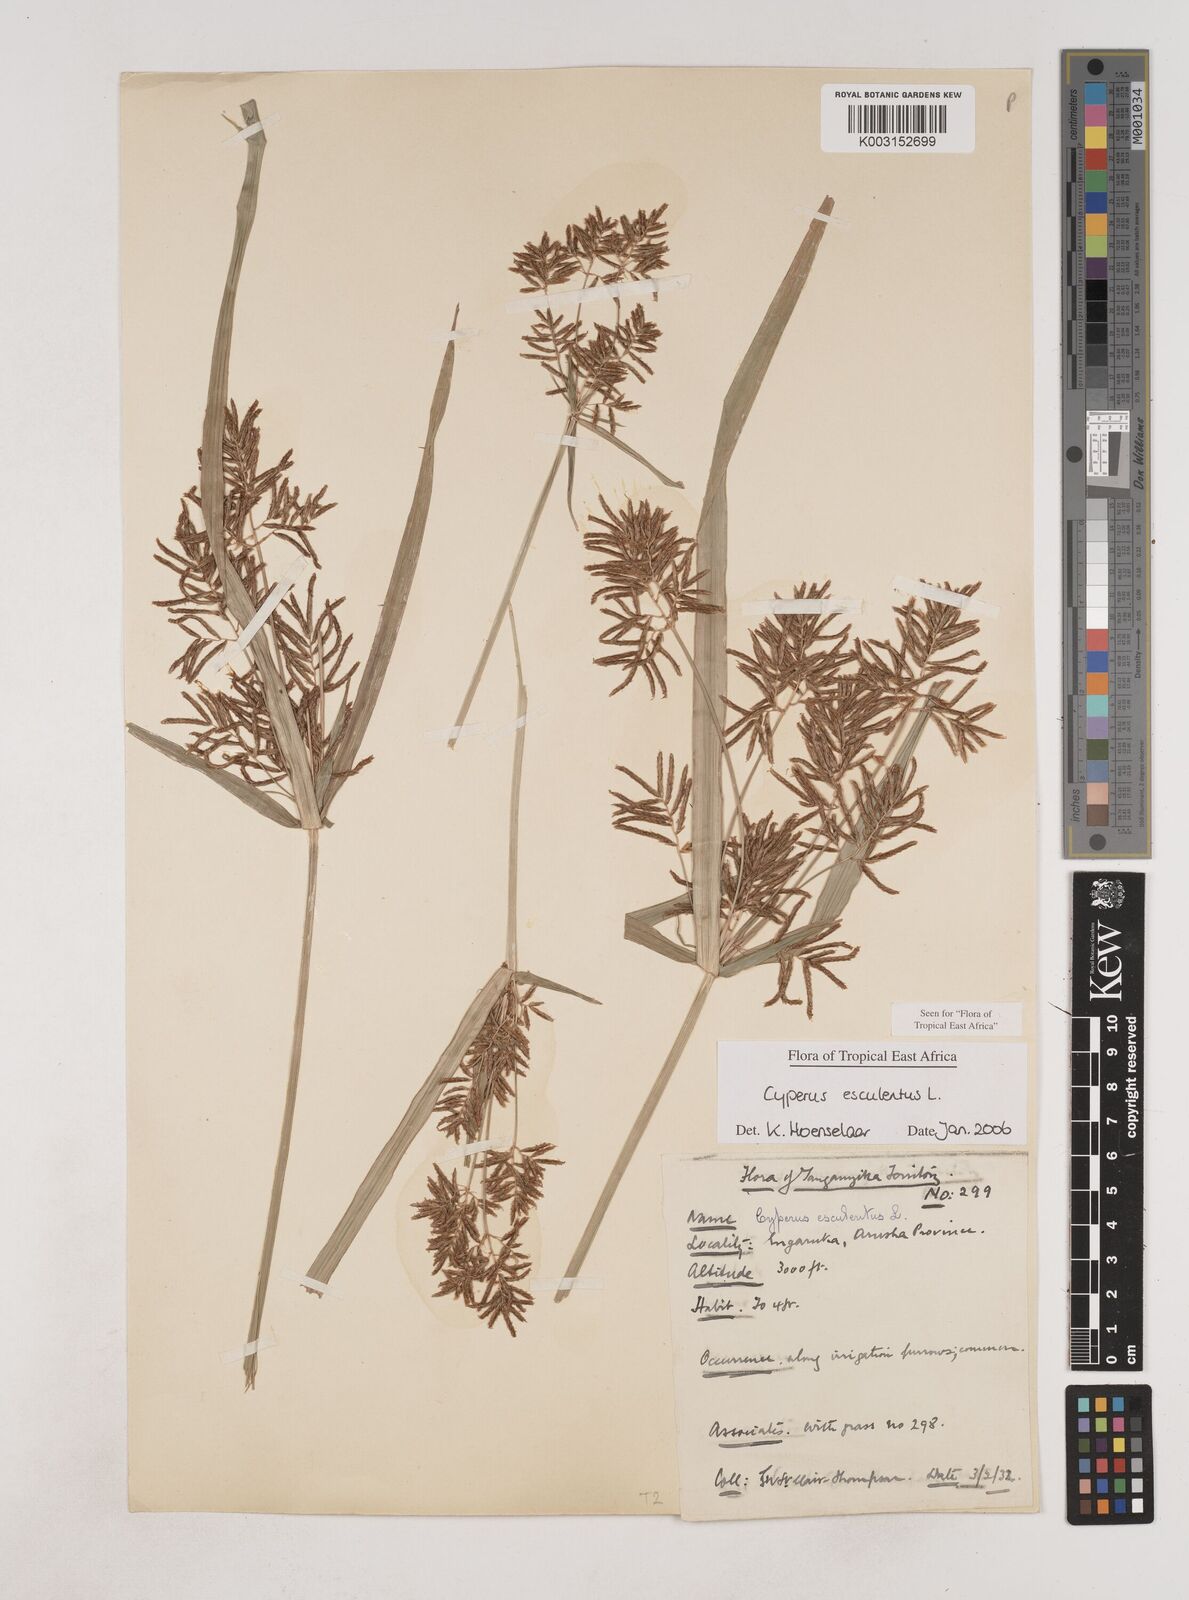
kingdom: Plantae
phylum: Tracheophyta
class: Liliopsida
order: Poales
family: Cyperaceae
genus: Cyperus
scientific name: Cyperus esculentus
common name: Yellow nutsedge
